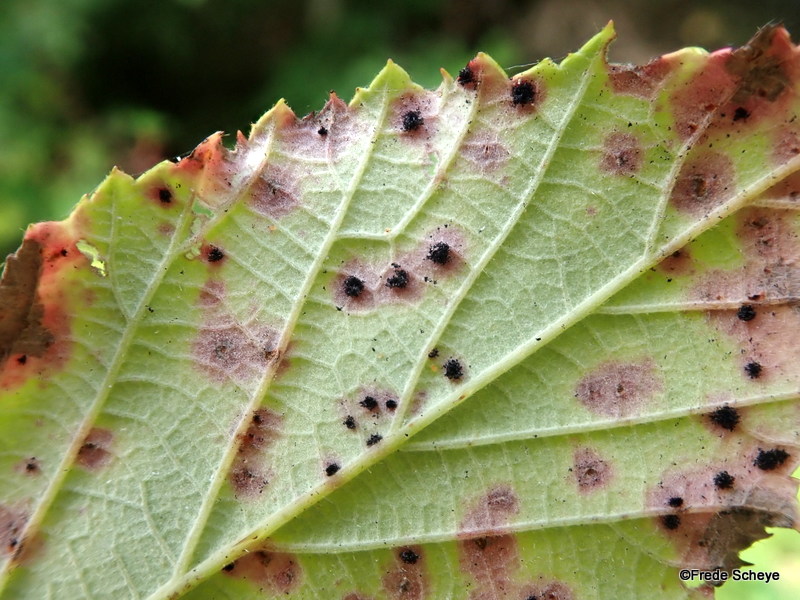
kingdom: Fungi
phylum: Basidiomycota
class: Pucciniomycetes
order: Pucciniales
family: Phragmidiaceae
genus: Phragmidium
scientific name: Phragmidium violaceum
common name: violet flercellerust
